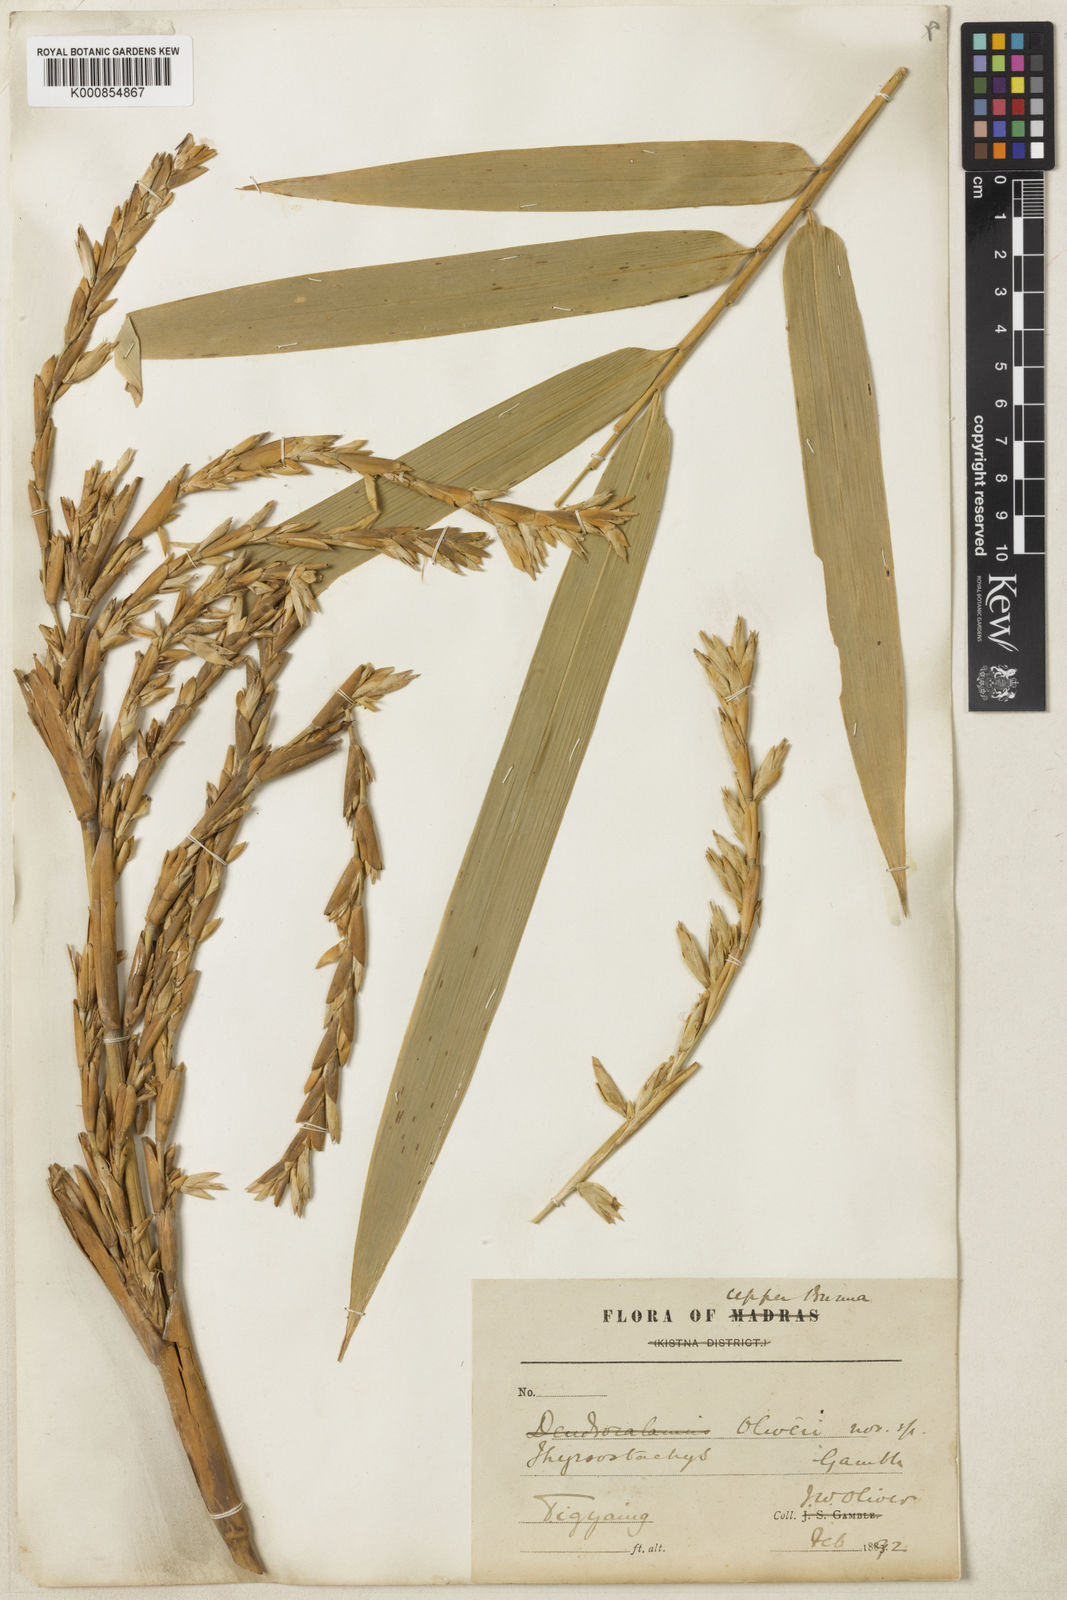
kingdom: Plantae
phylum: Tracheophyta
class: Liliopsida
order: Poales
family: Poaceae
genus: Thyrsostachys
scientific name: Thyrsostachys oliveri
